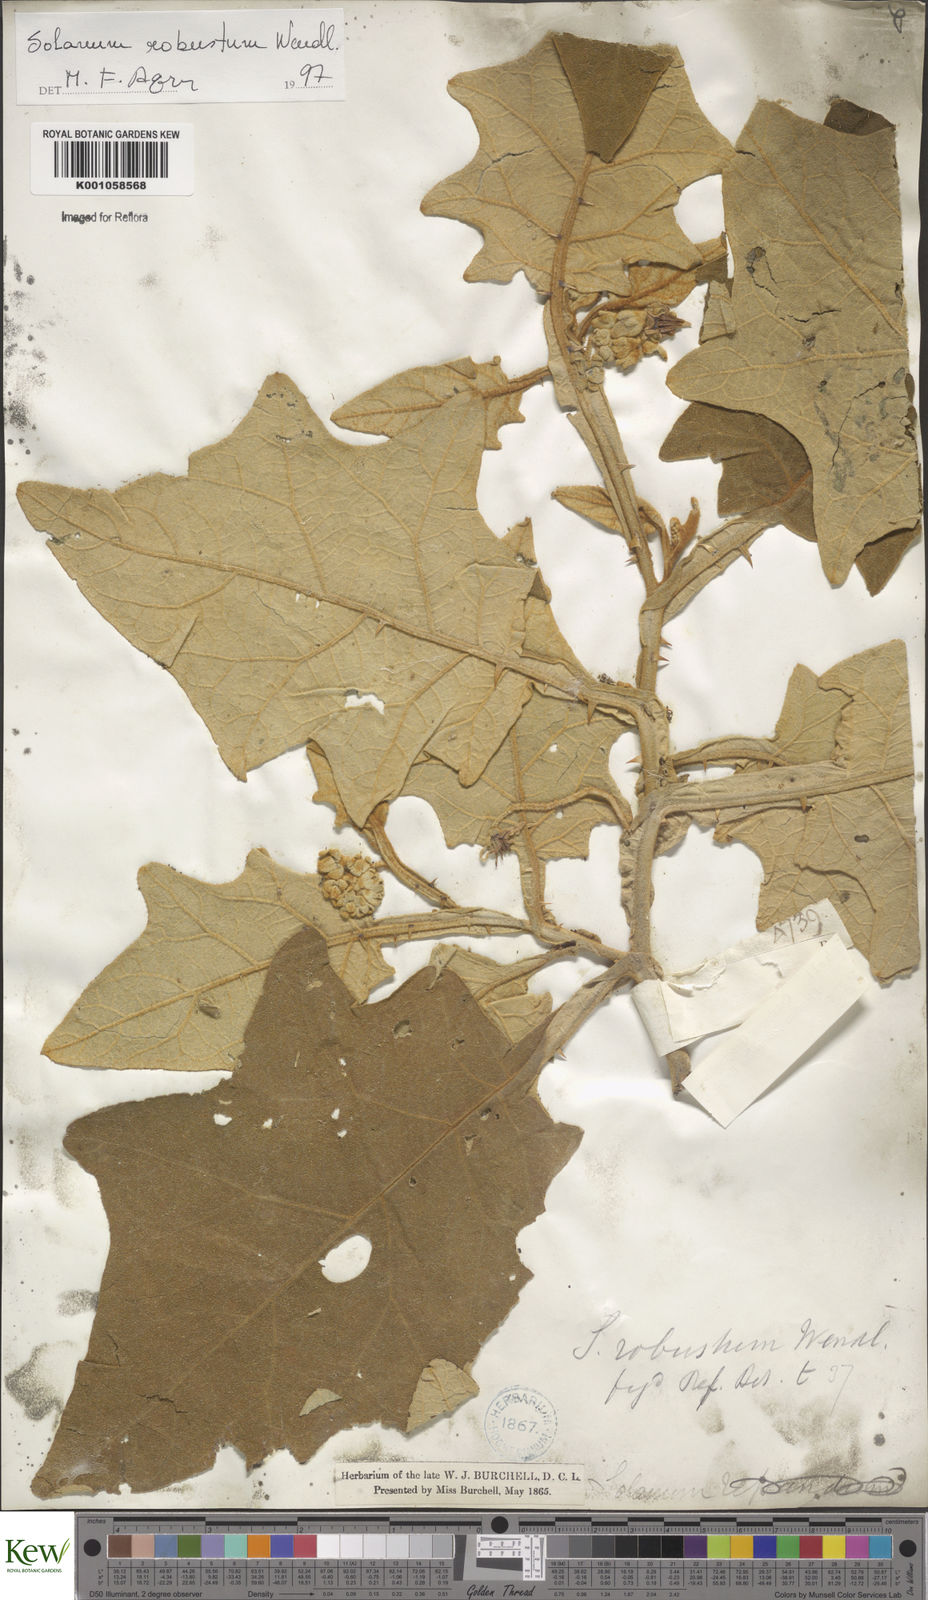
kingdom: Plantae
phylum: Tracheophyta
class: Magnoliopsida
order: Solanales
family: Solanaceae
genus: Solanum
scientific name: Solanum robustum
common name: Shrubby nightshade
